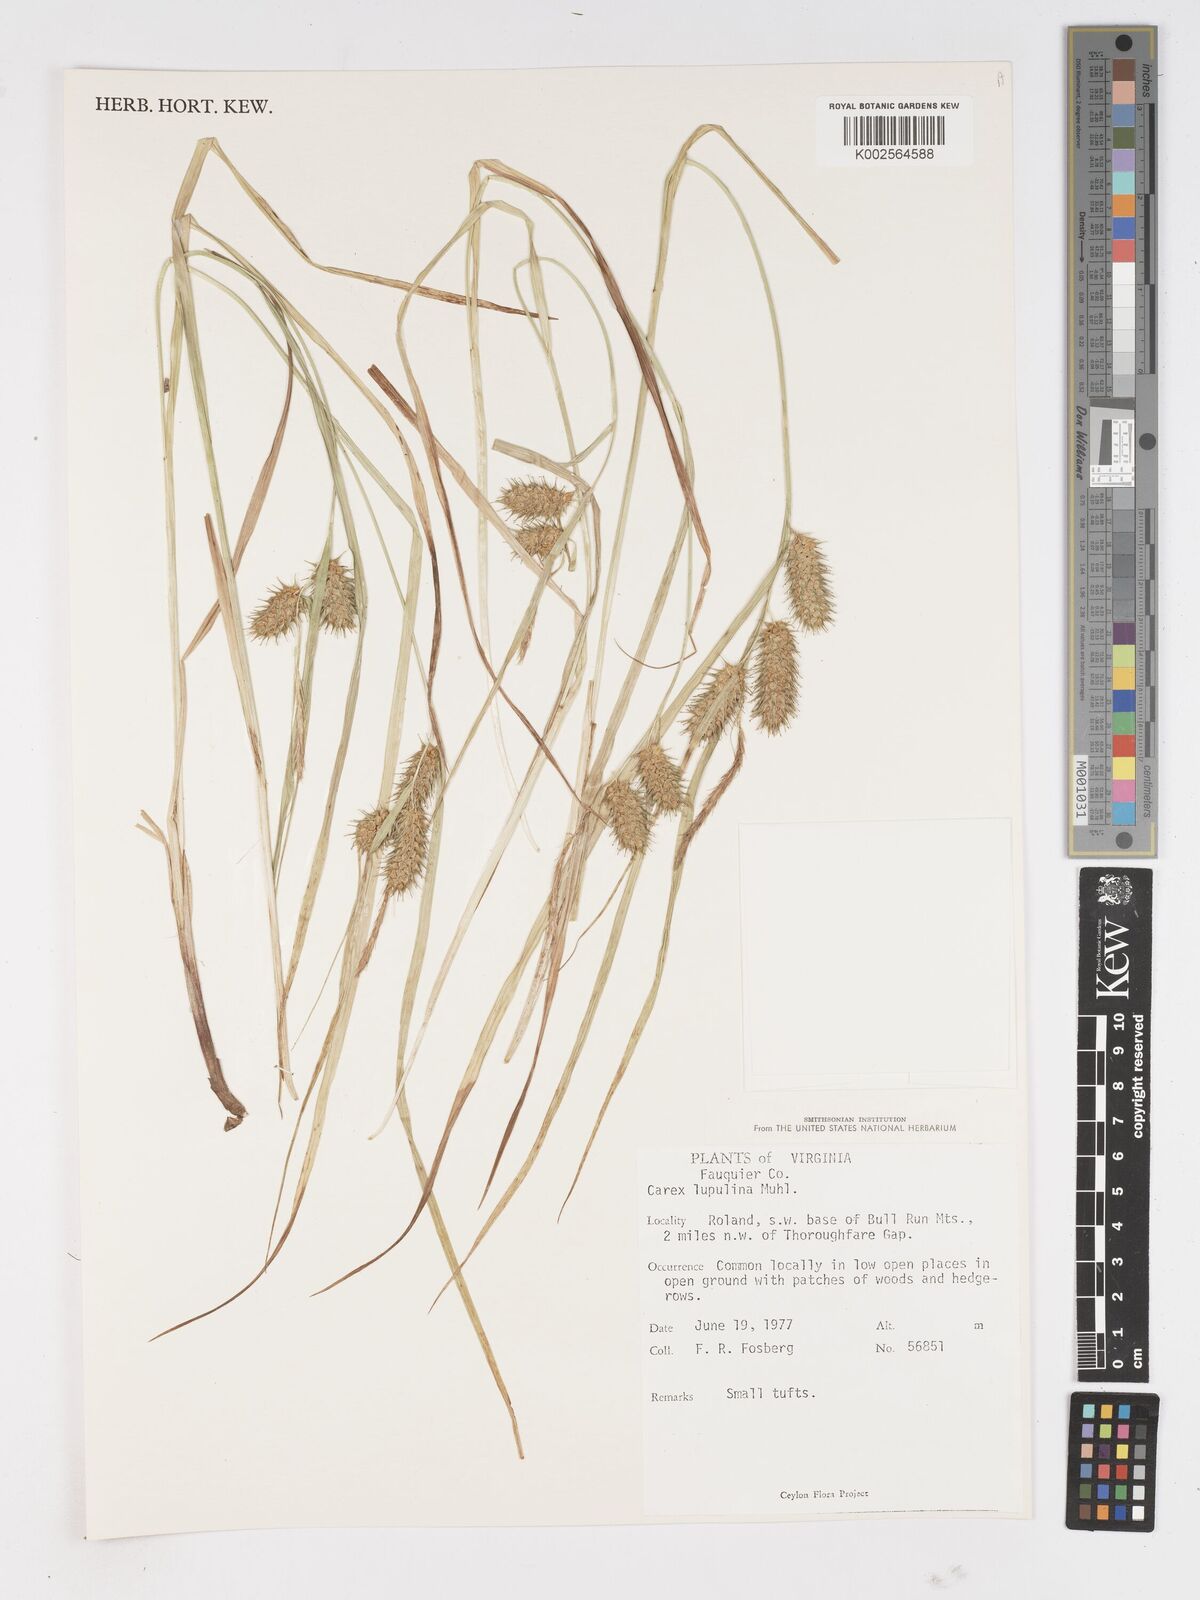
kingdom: Plantae
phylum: Tracheophyta
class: Liliopsida
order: Poales
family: Cyperaceae
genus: Carex
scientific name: Carex lupulina
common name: Hop sedge
